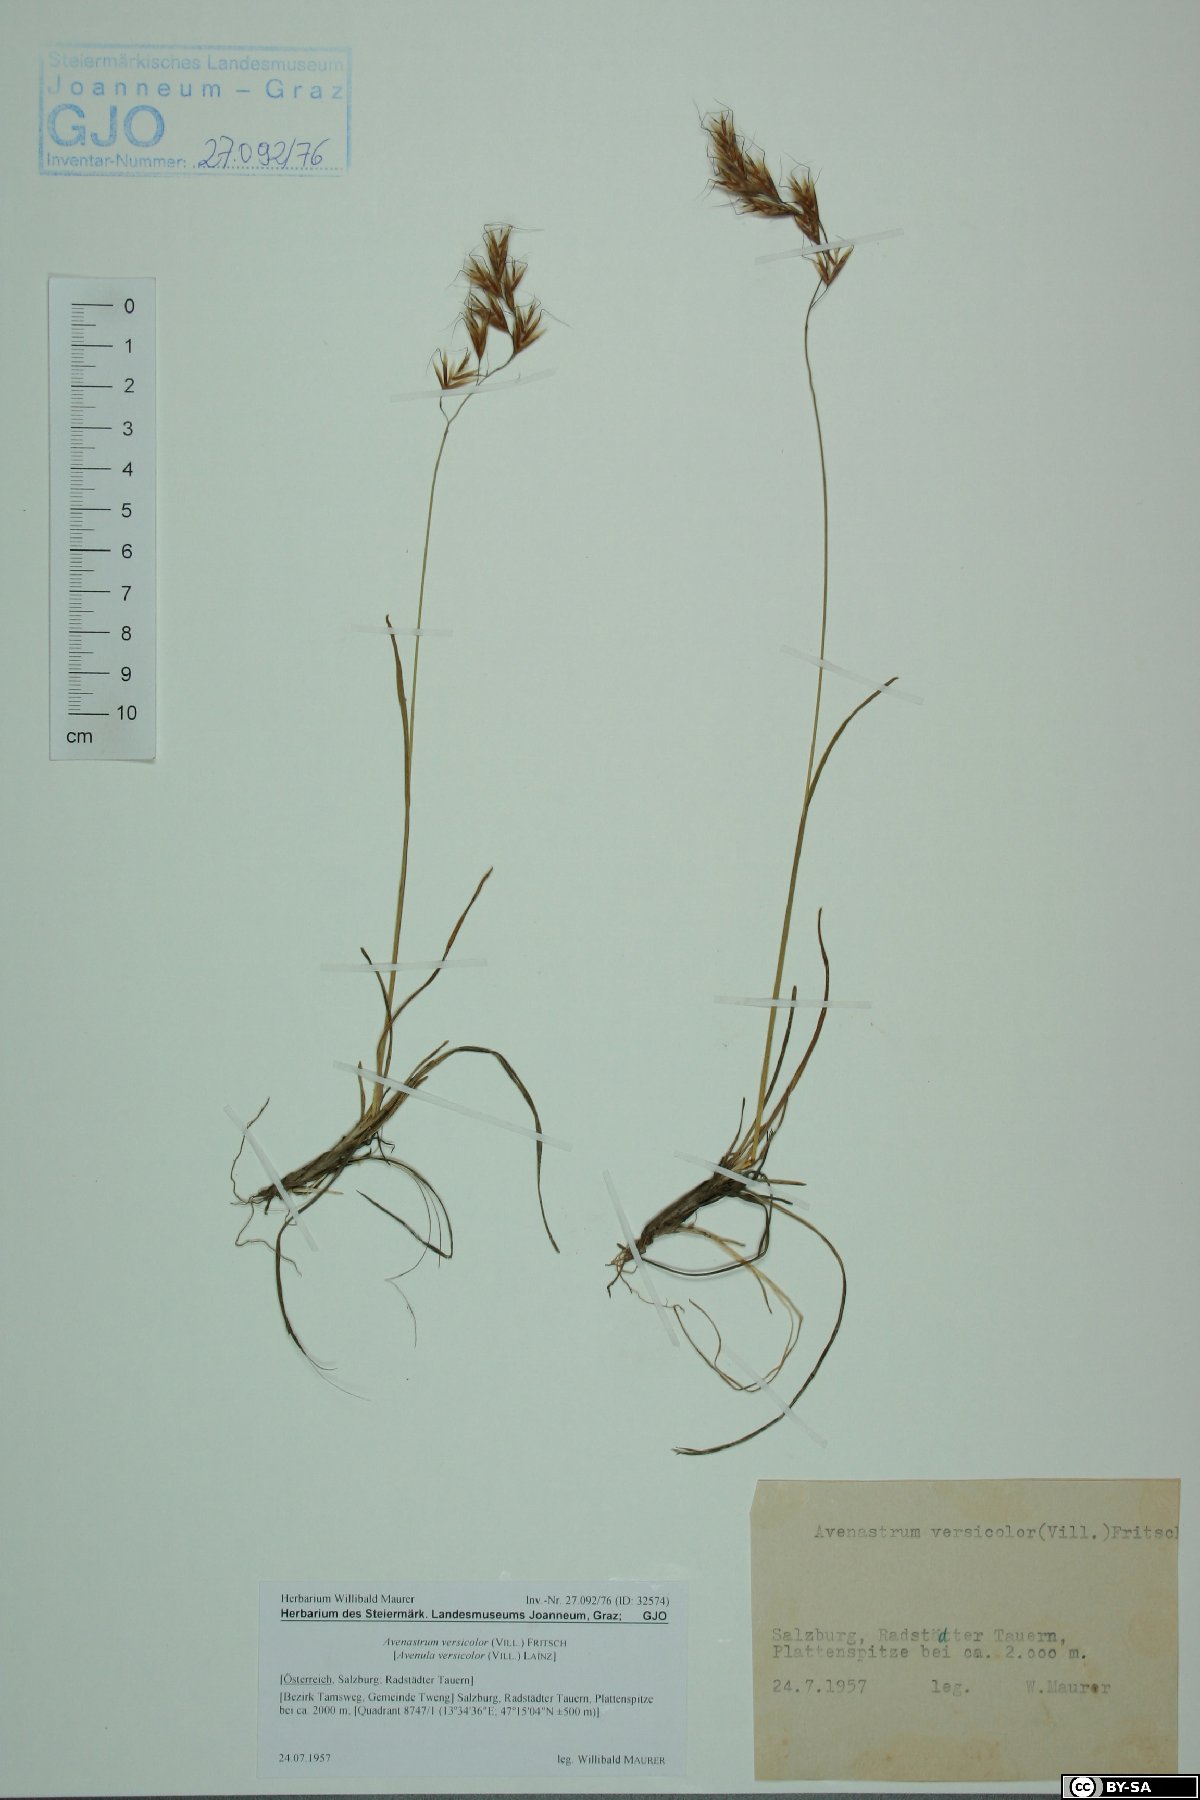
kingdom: Plantae
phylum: Tracheophyta
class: Liliopsida
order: Poales
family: Poaceae
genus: Helictochloa
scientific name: Helictochloa versicolor
